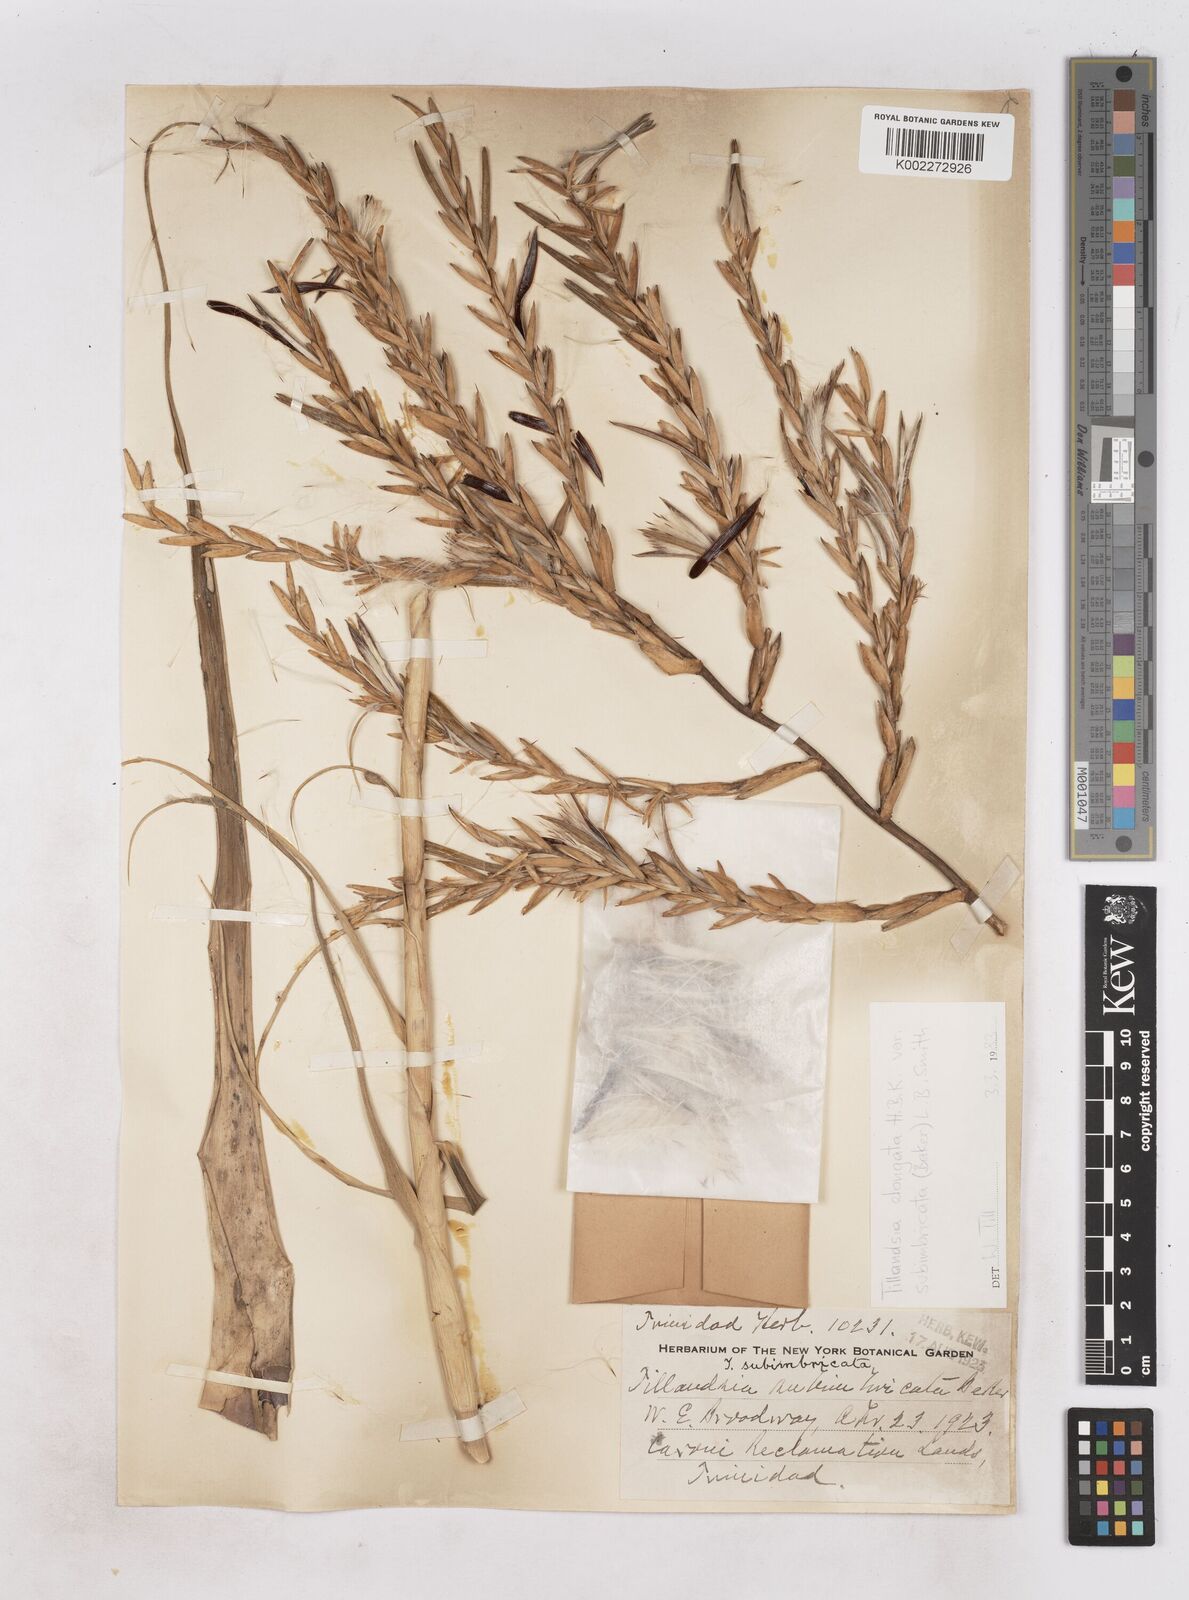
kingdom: Plantae
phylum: Tracheophyta
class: Liliopsida
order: Poales
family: Bromeliaceae
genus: Tillandsia
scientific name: Tillandsia elongata
